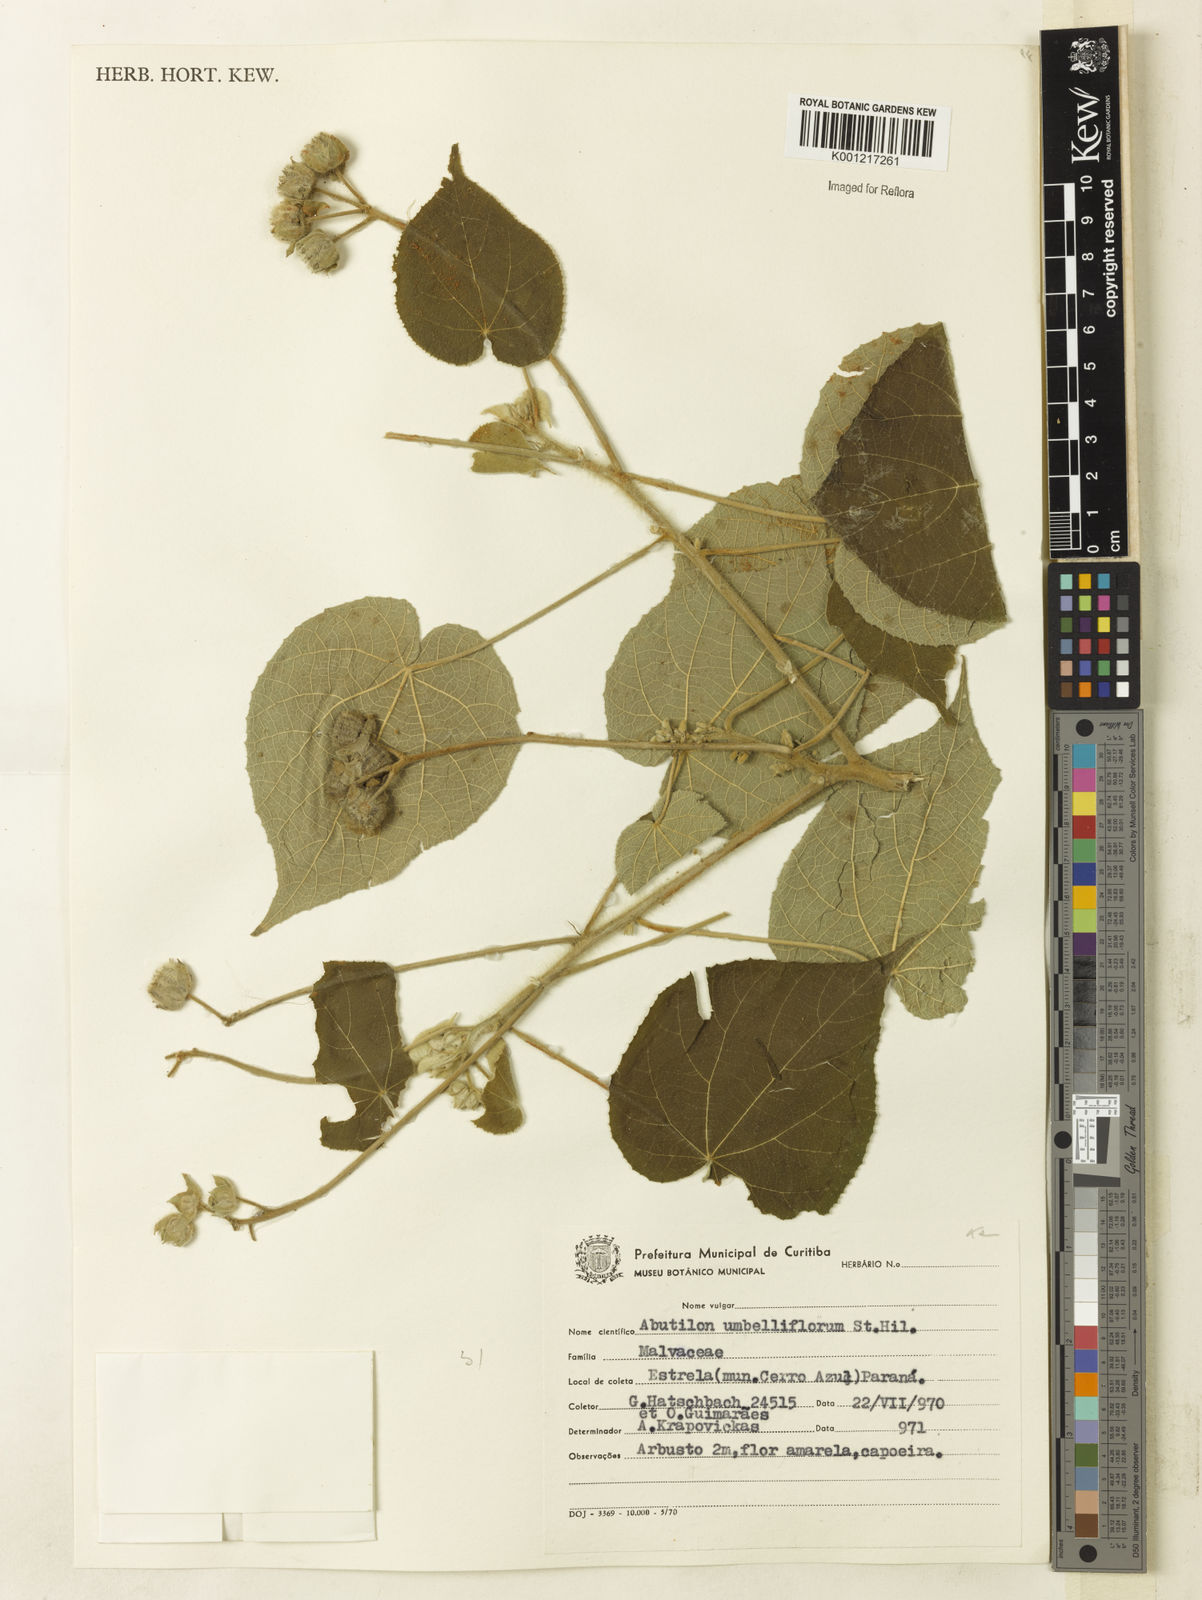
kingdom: Plantae
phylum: Tracheophyta
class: Magnoliopsida
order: Malvales
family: Malvaceae
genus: Abutilon
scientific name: Abutilon umbelliflorum
